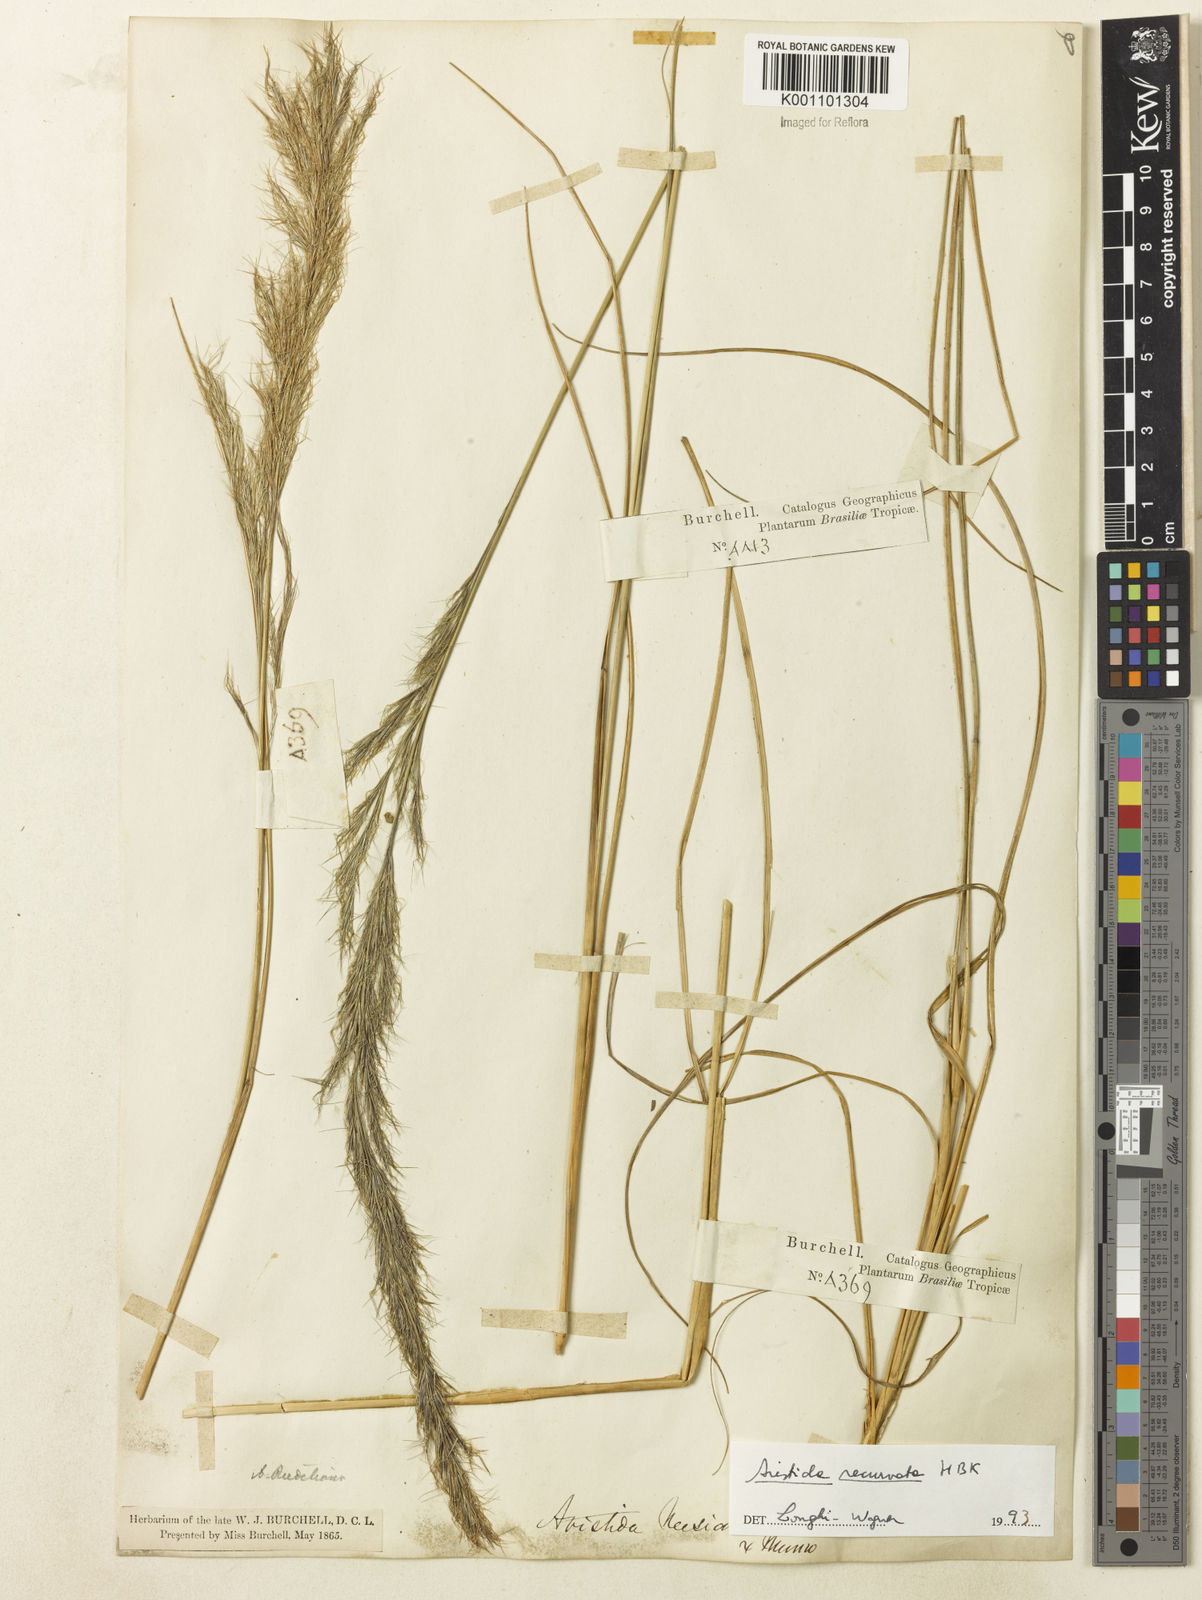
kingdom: Plantae
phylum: Tracheophyta
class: Liliopsida
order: Poales
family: Poaceae
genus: Aristida
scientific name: Aristida recurvata
